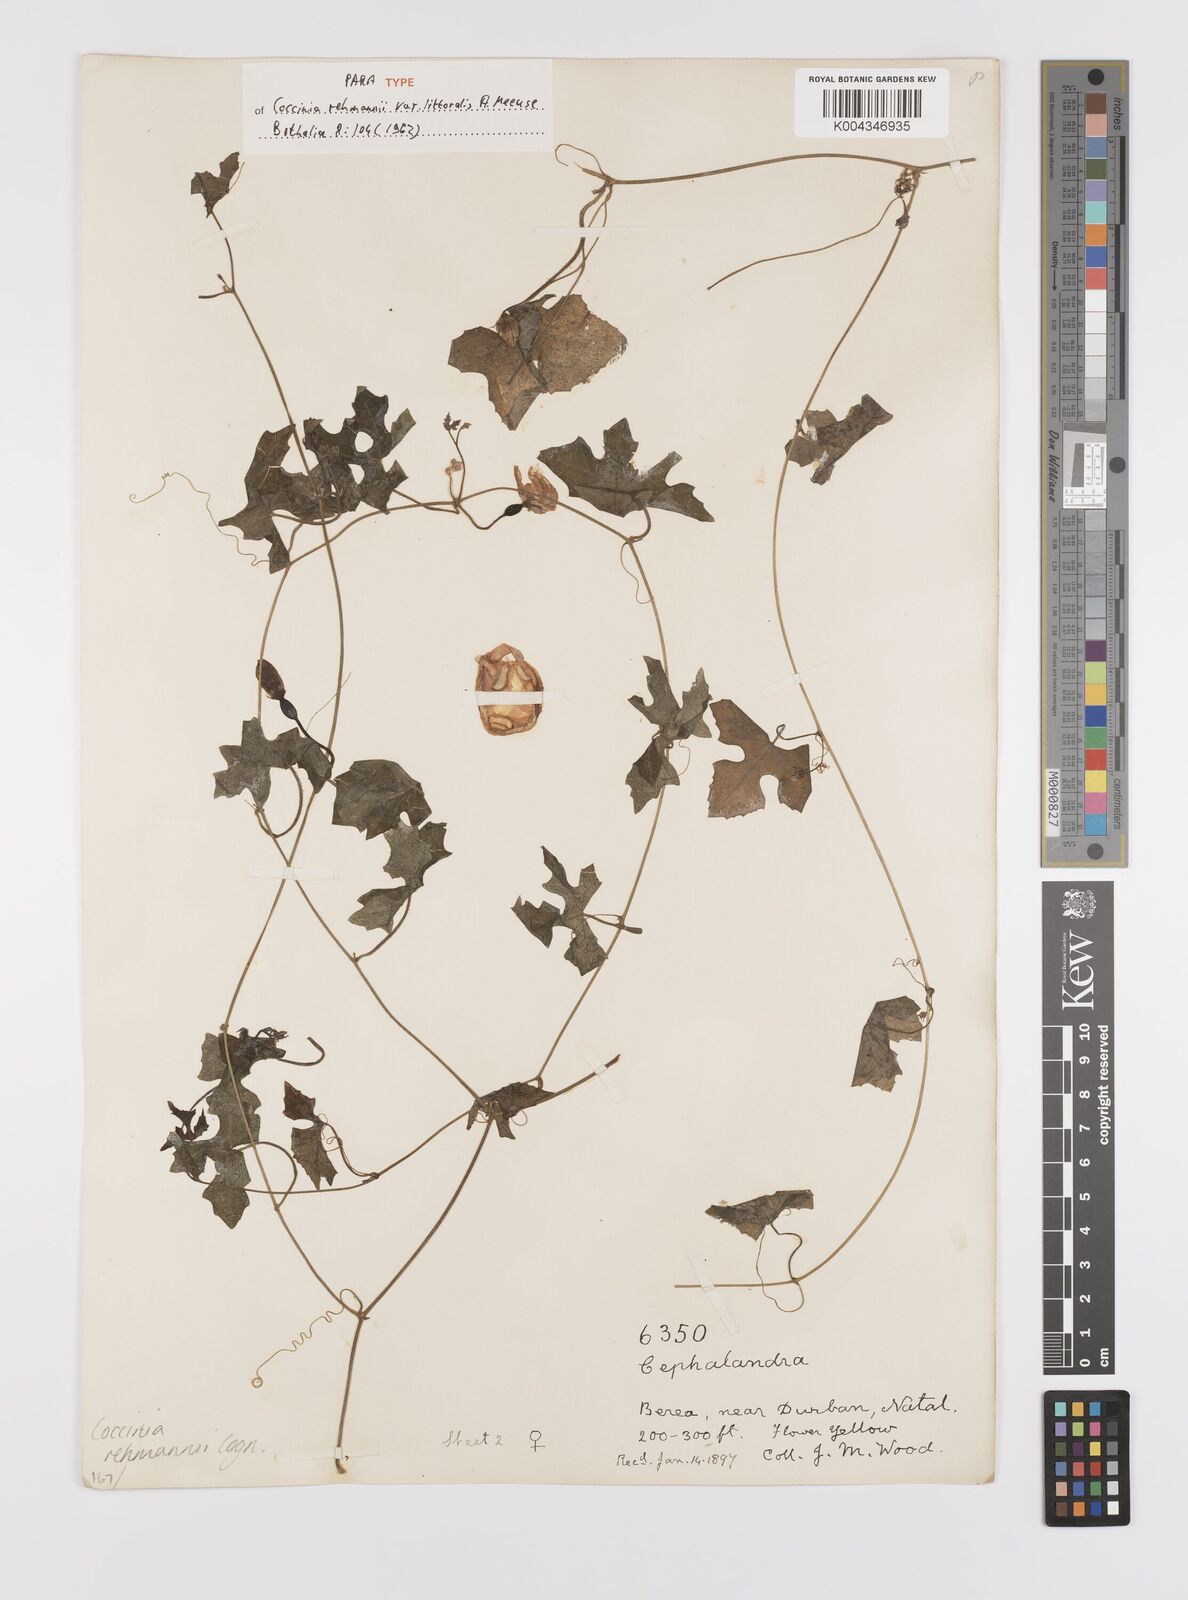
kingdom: Plantae
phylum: Tracheophyta
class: Magnoliopsida
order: Cucurbitales
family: Cucurbitaceae
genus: Coccinia
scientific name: Coccinia rehmannii
